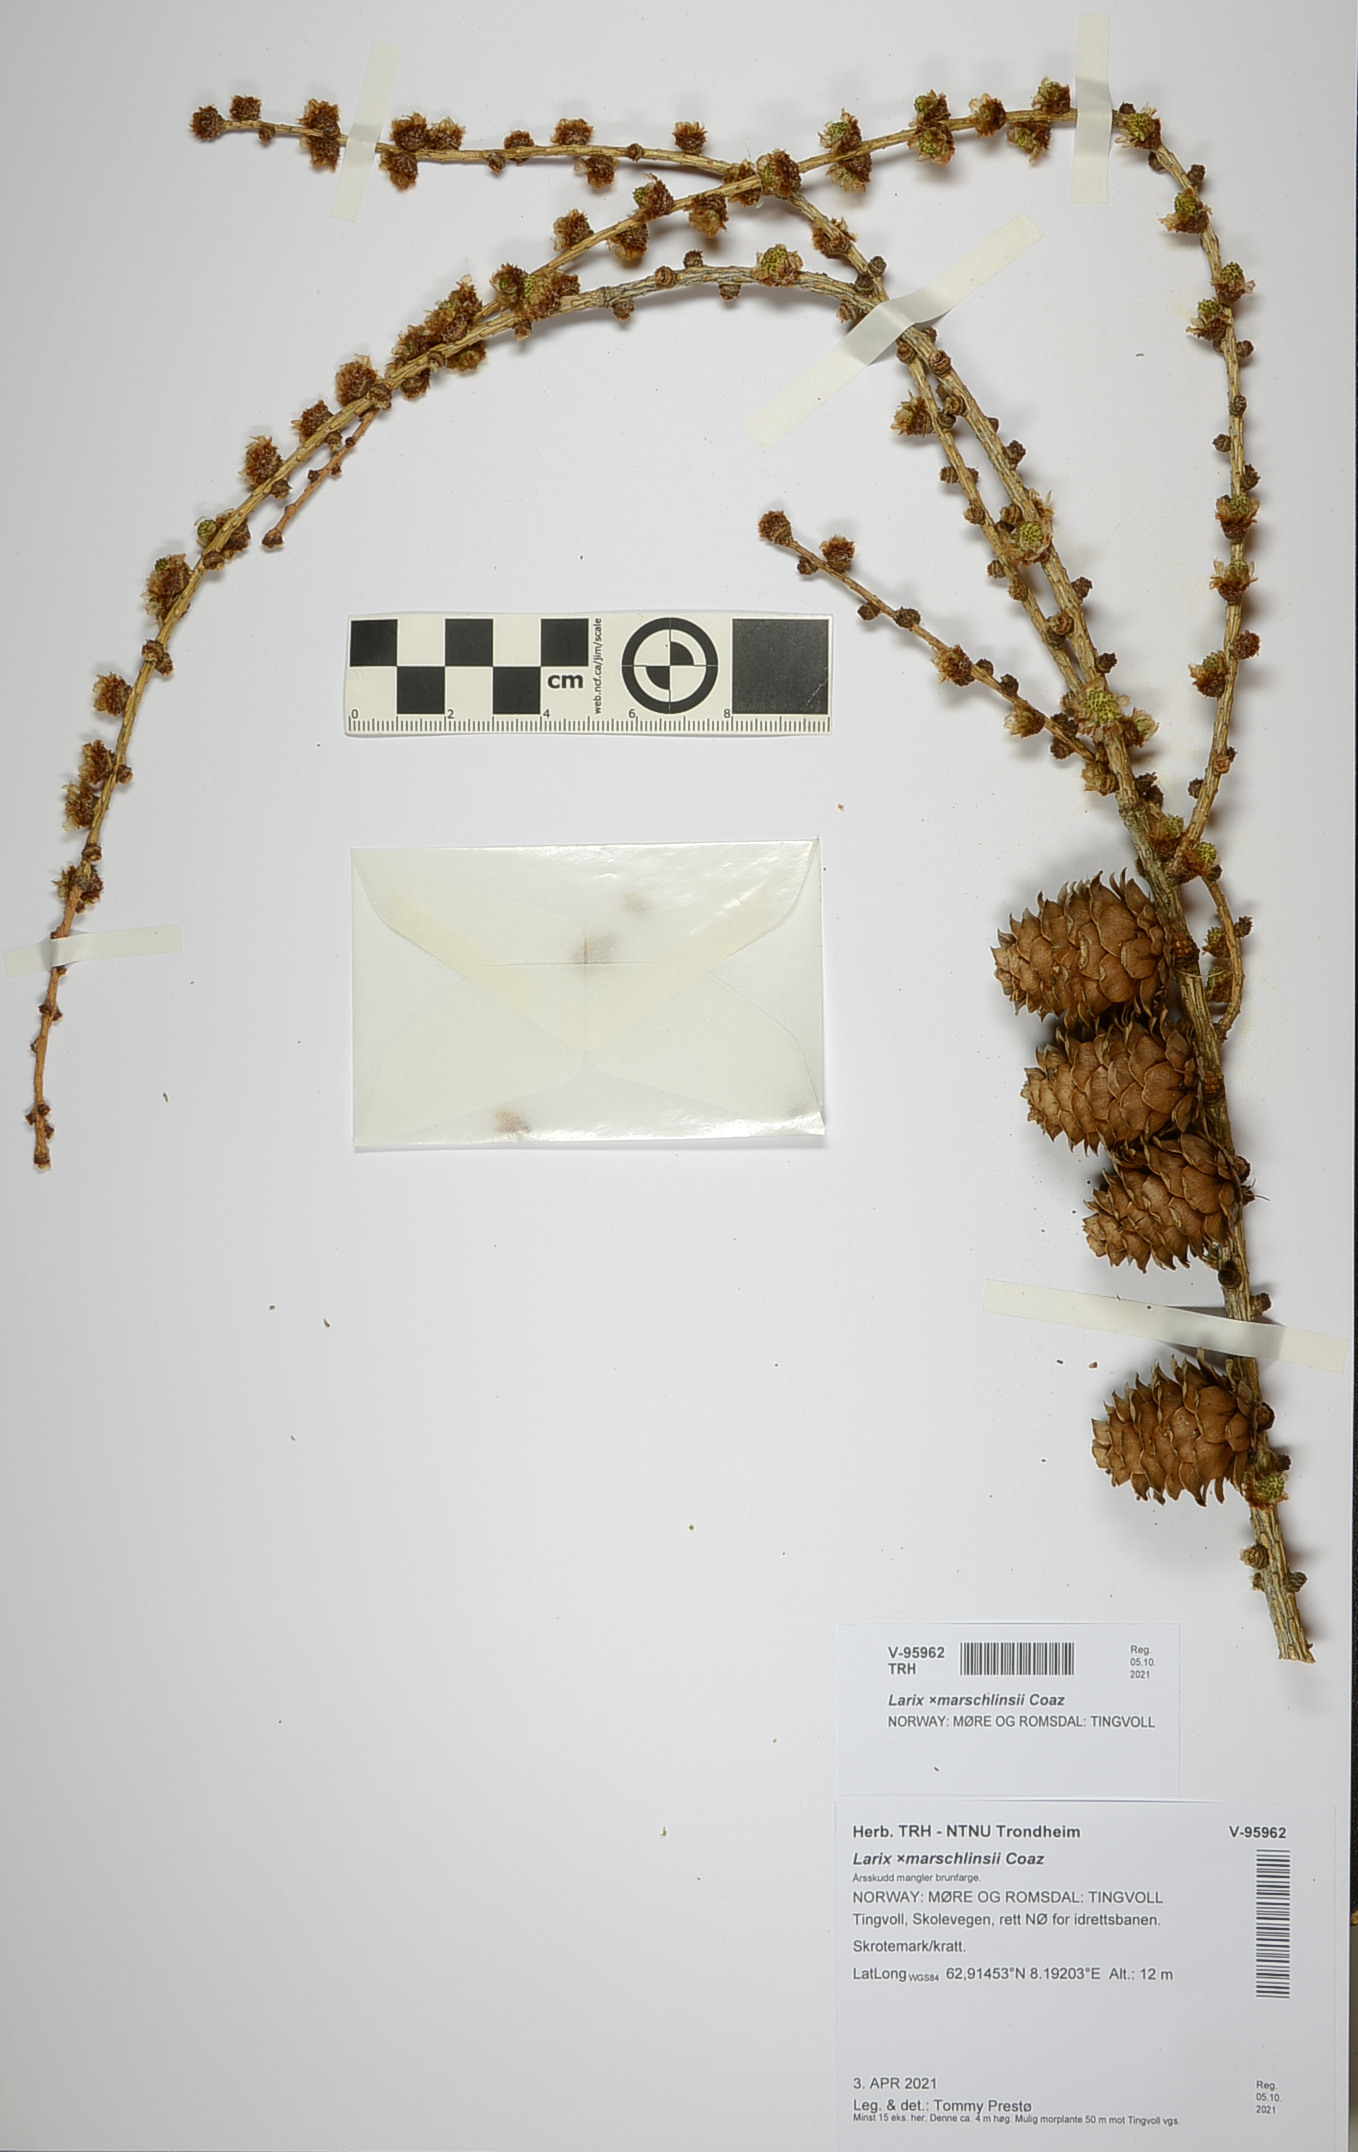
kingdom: Plantae
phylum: Tracheophyta
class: Pinopsida
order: Pinales
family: Pinaceae
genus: Larix
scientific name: Larix marschlinsii
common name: Hybrid larch
